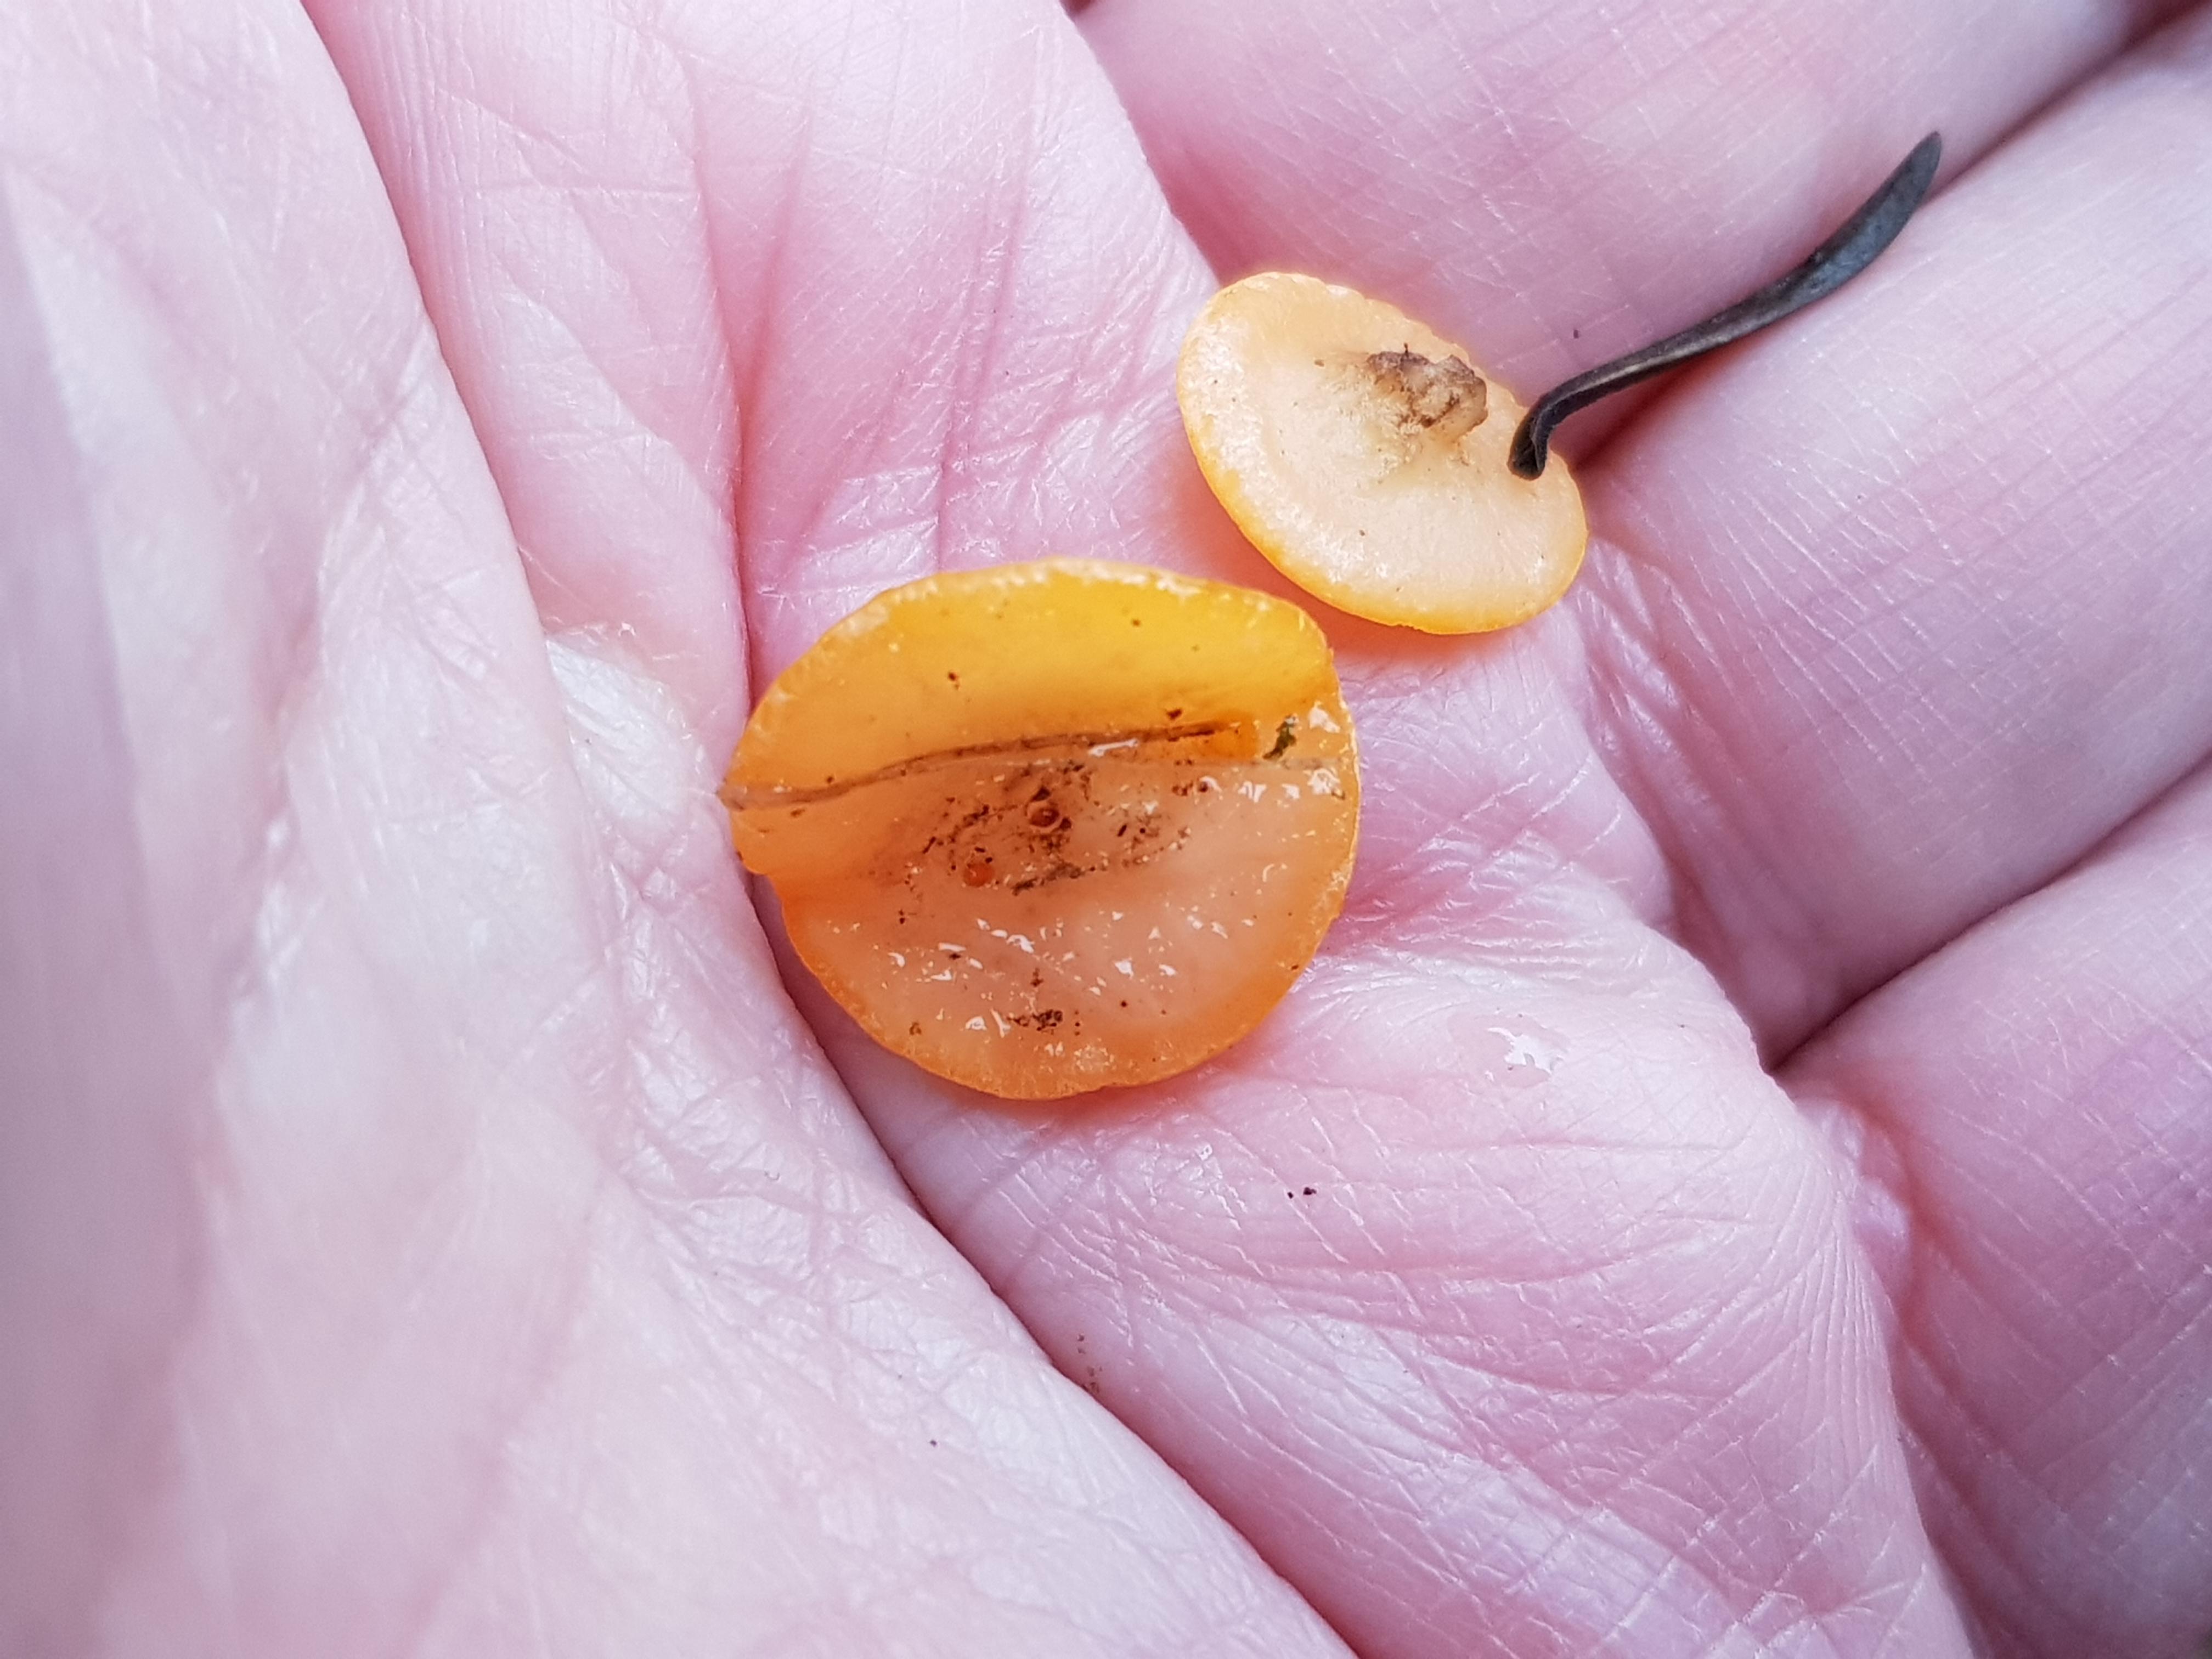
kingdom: Fungi
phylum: Ascomycota
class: Pezizomycetes
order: Pezizales
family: Sarcoscyphaceae
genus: Pithya
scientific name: Pithya vulgaris
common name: stor dukatbæger
